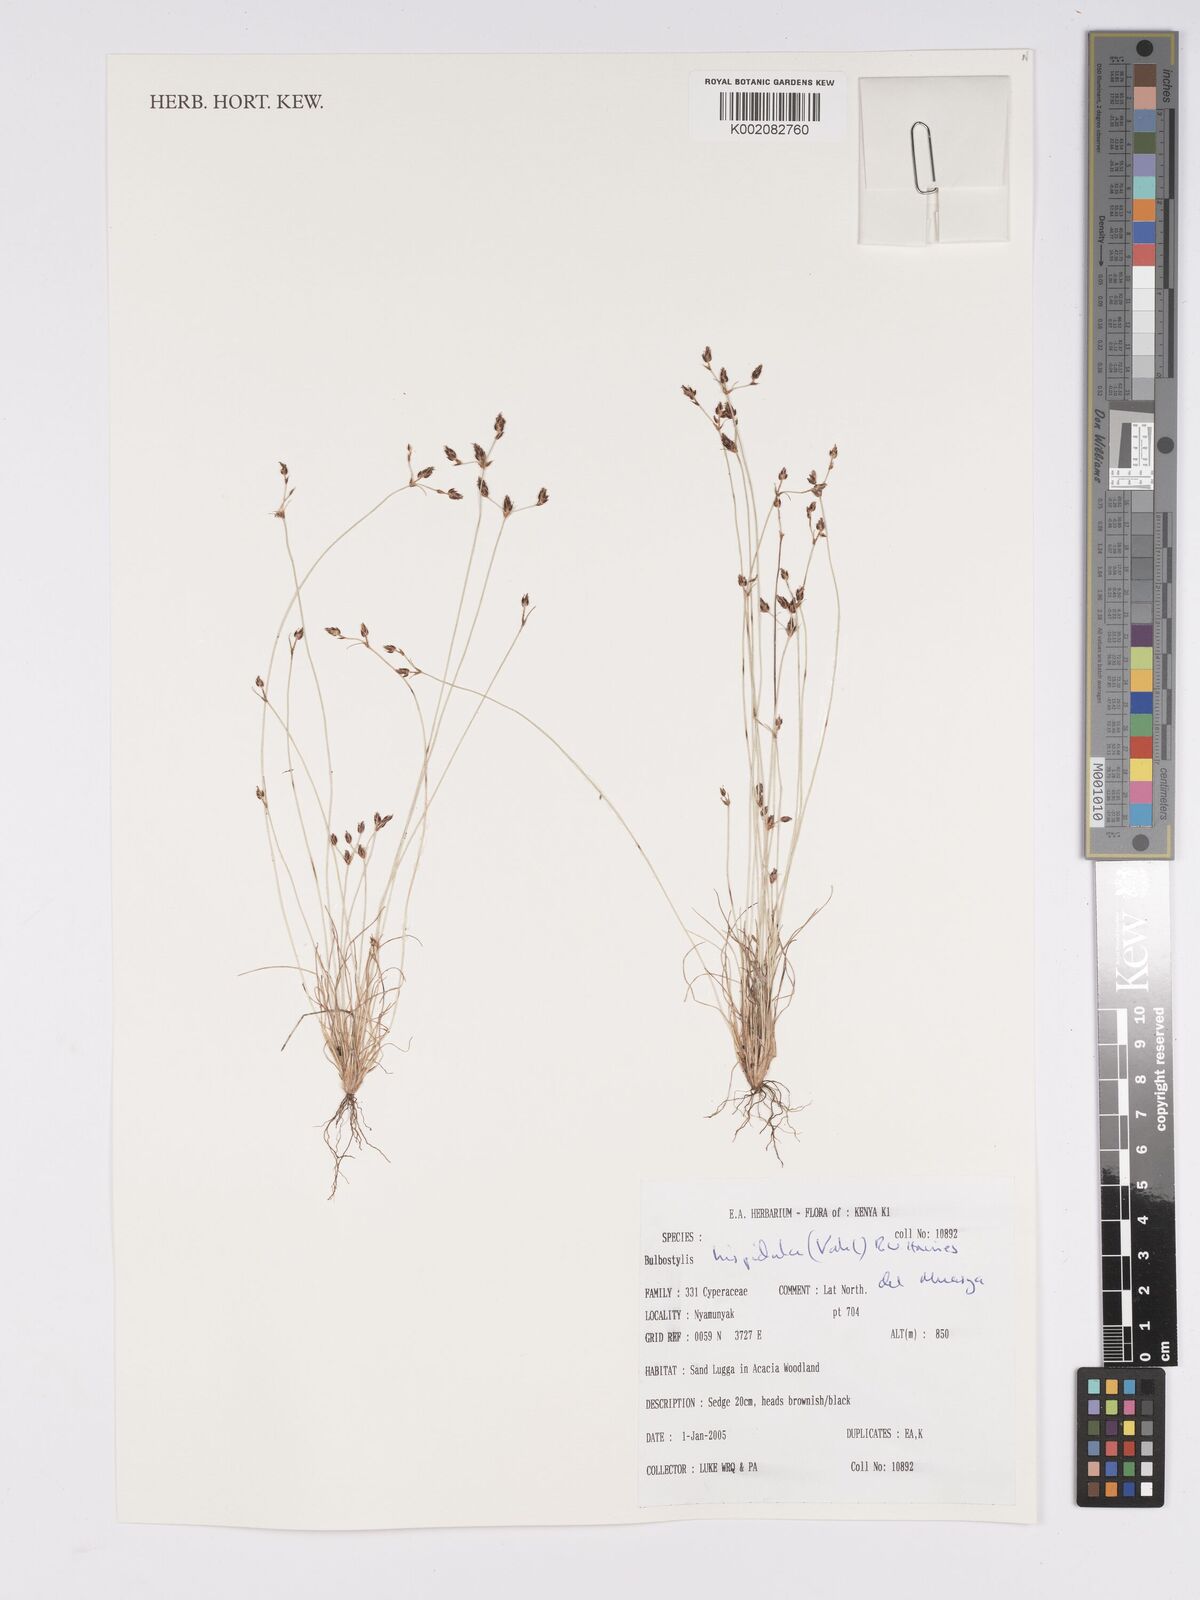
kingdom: Plantae
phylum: Tracheophyta
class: Liliopsida
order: Poales
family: Cyperaceae
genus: Bulbostylis
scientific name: Bulbostylis hispidula
